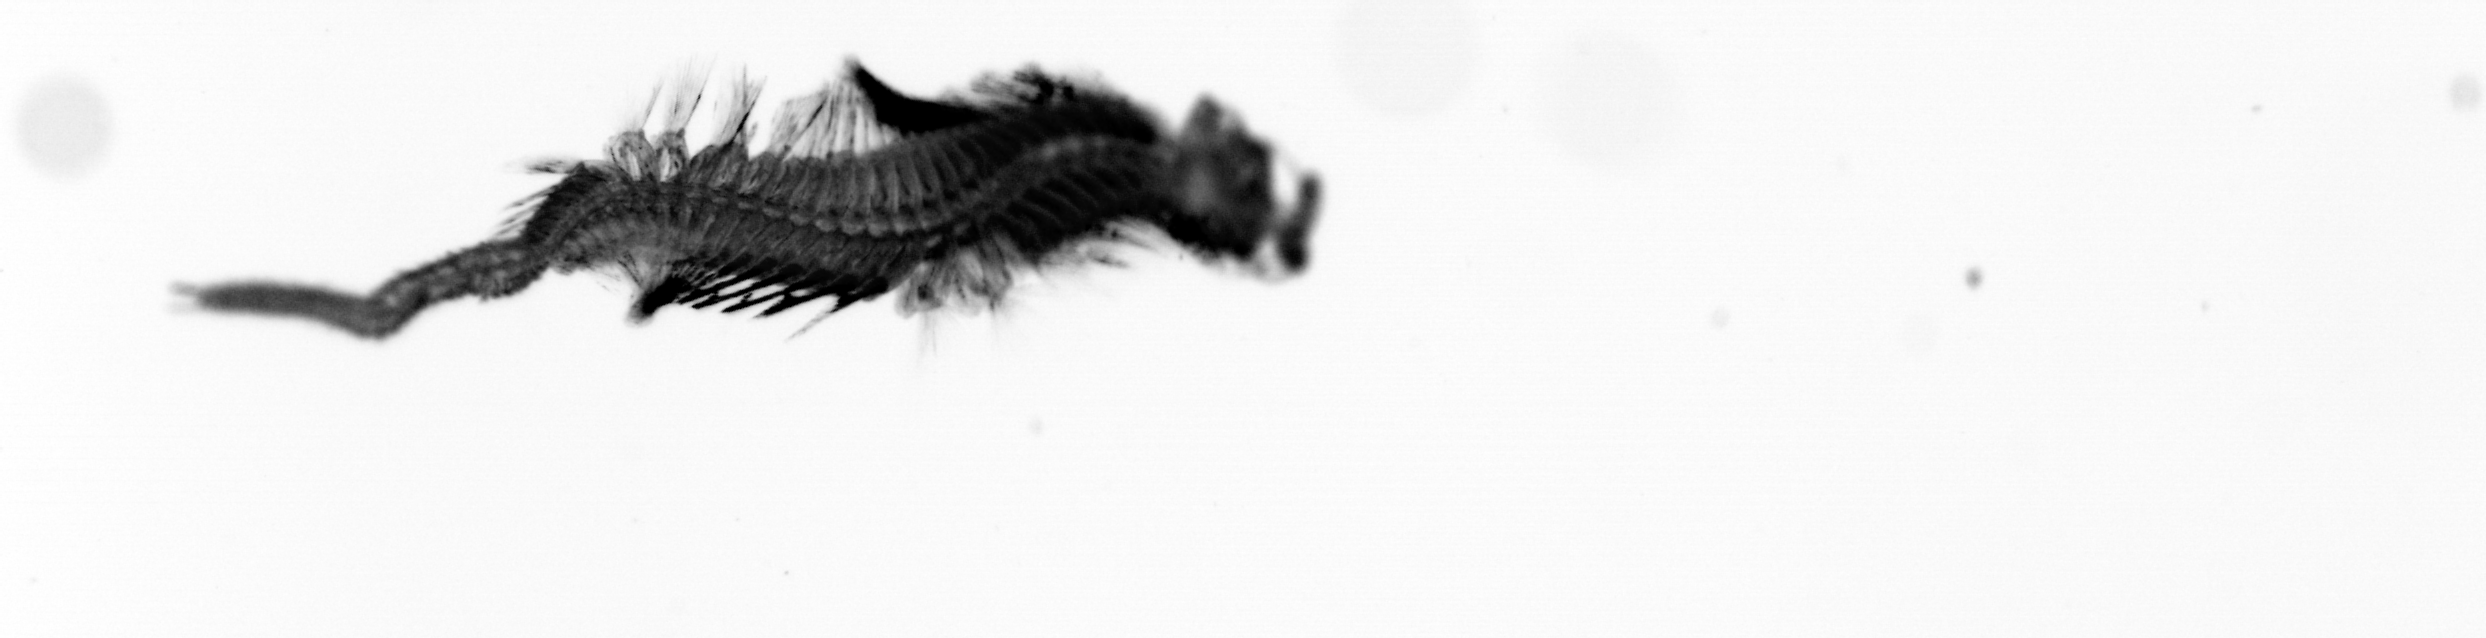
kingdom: Animalia
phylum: Annelida
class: Polychaeta
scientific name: Polychaeta
